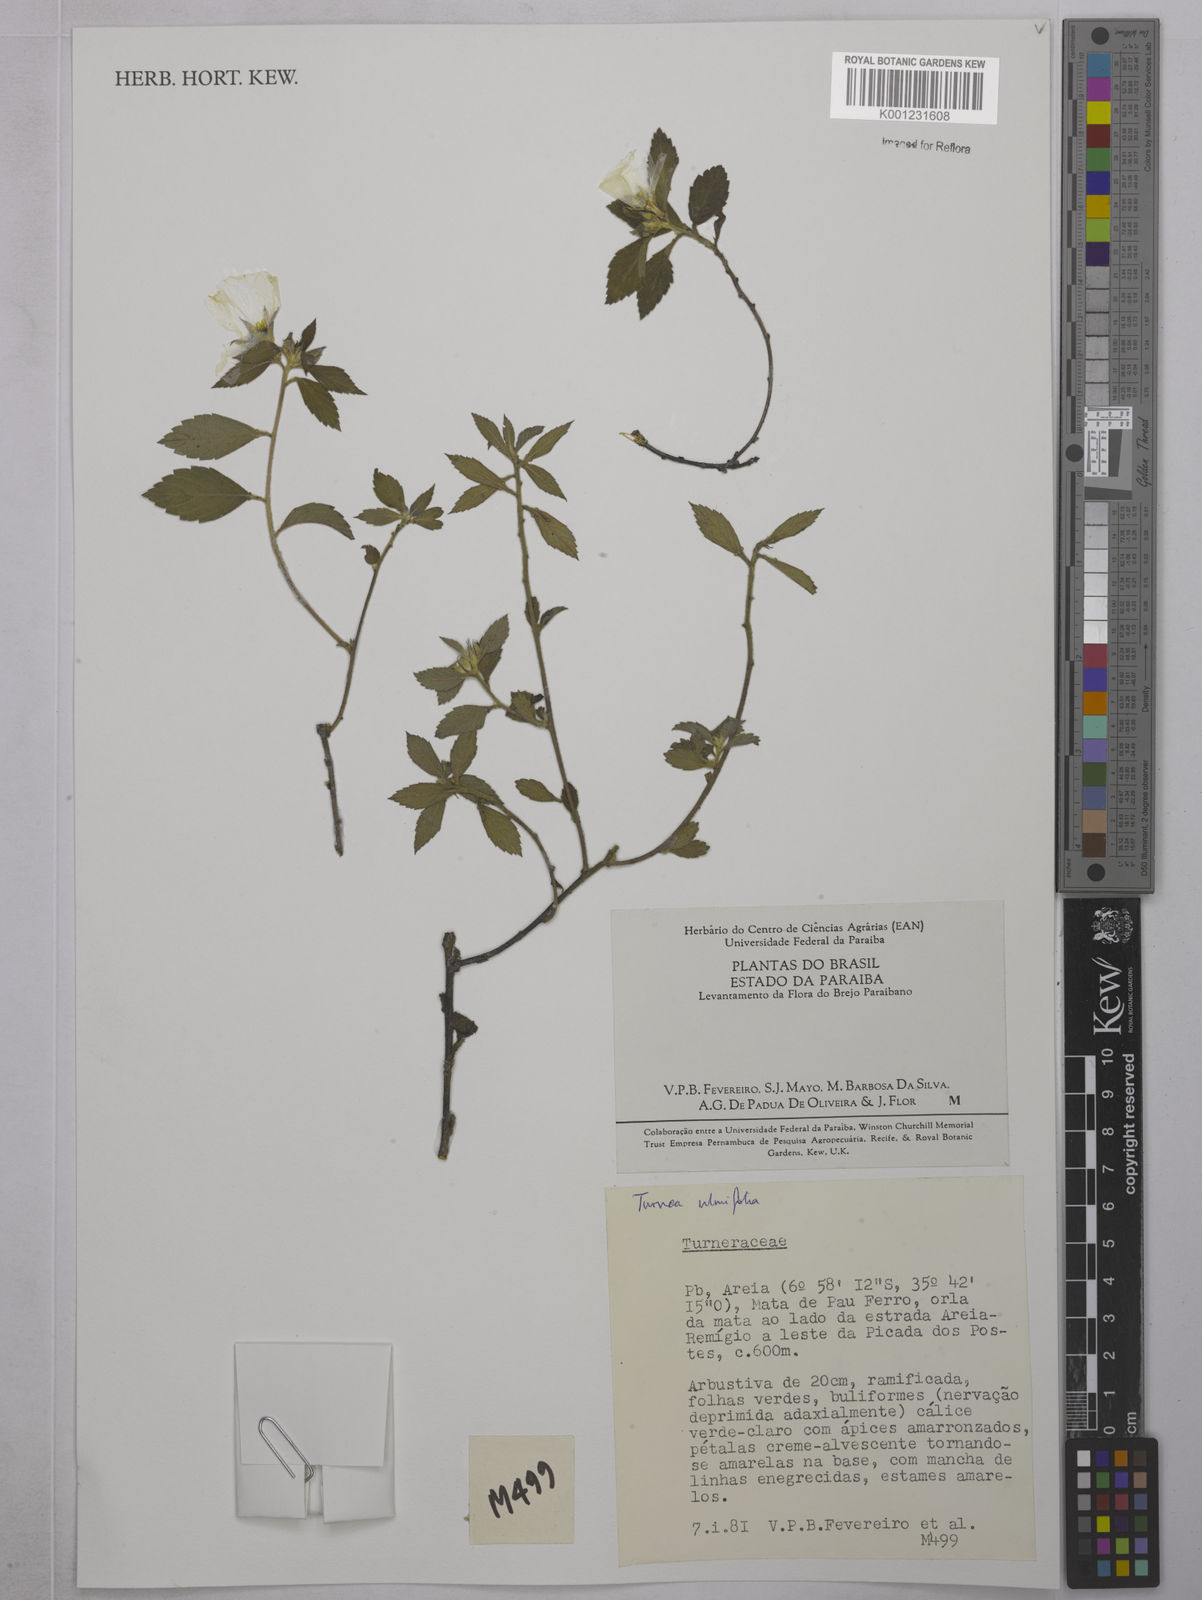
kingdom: Plantae
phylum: Tracheophyta
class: Magnoliopsida
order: Malpighiales
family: Turneraceae
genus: Turnera
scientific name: Turnera ulmifolia
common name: Ramgoat dashalong
